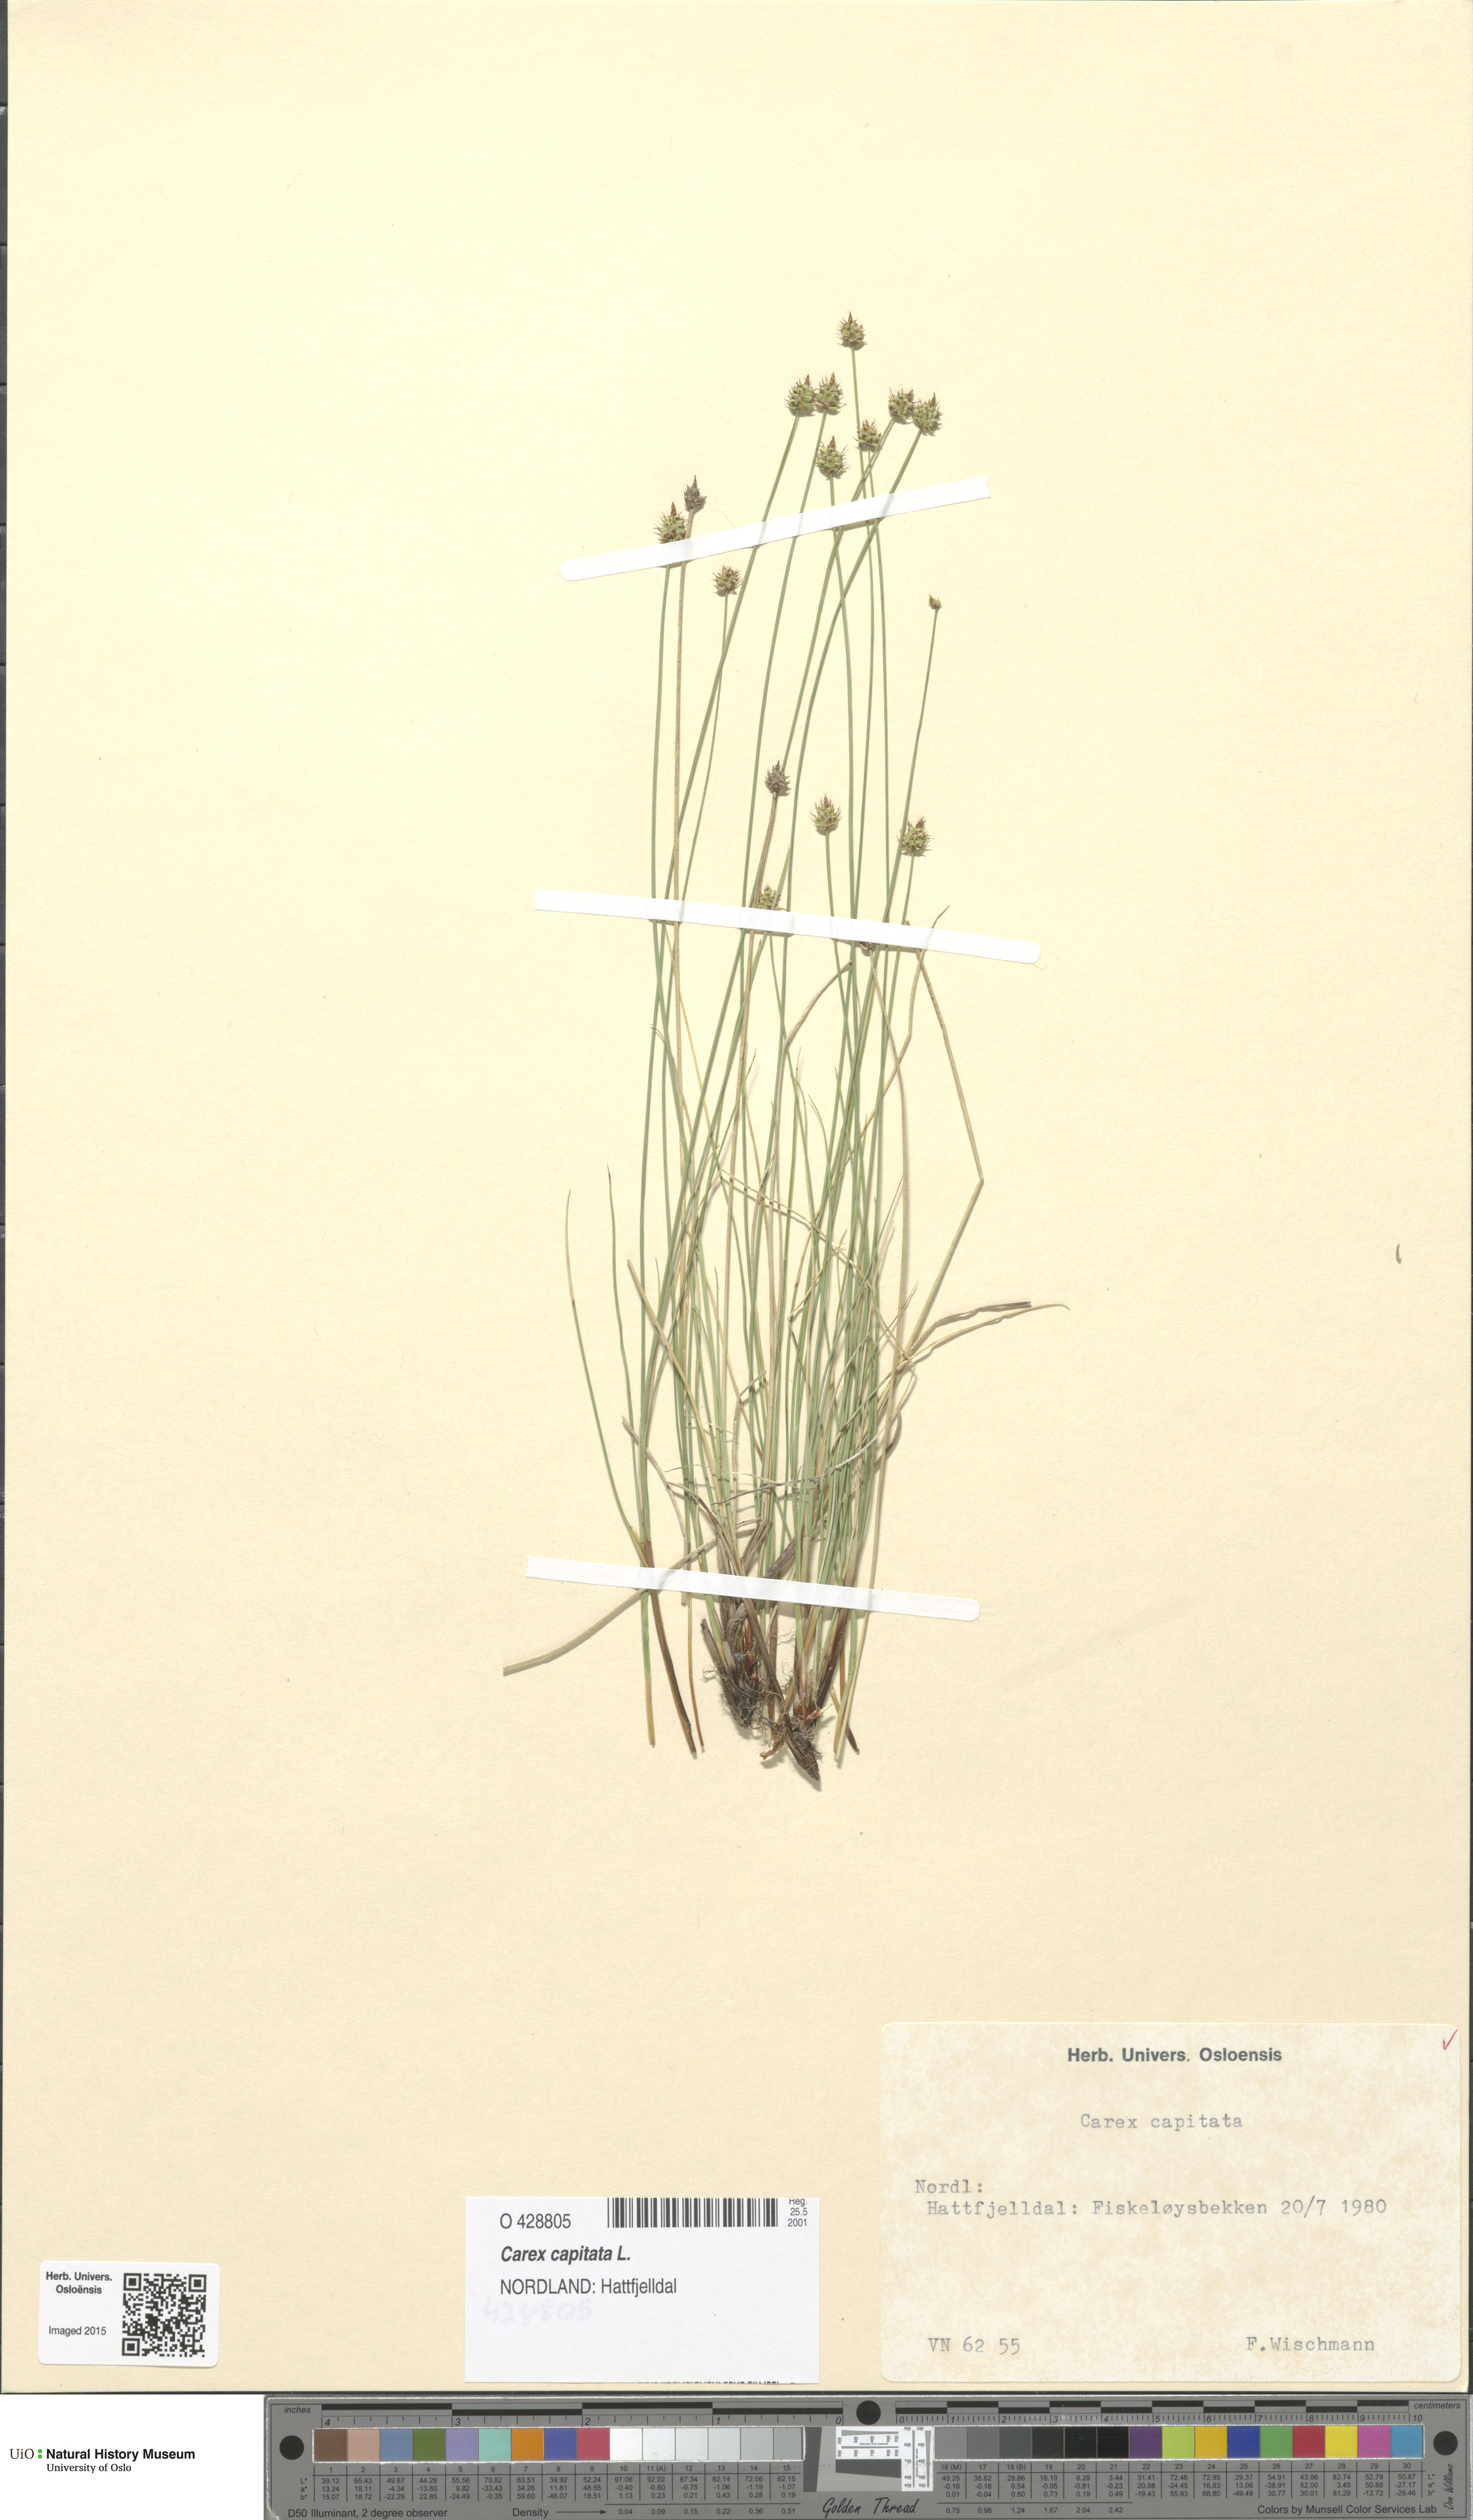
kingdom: Plantae
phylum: Tracheophyta
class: Liliopsida
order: Poales
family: Cyperaceae
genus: Carex
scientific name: Carex capitata
